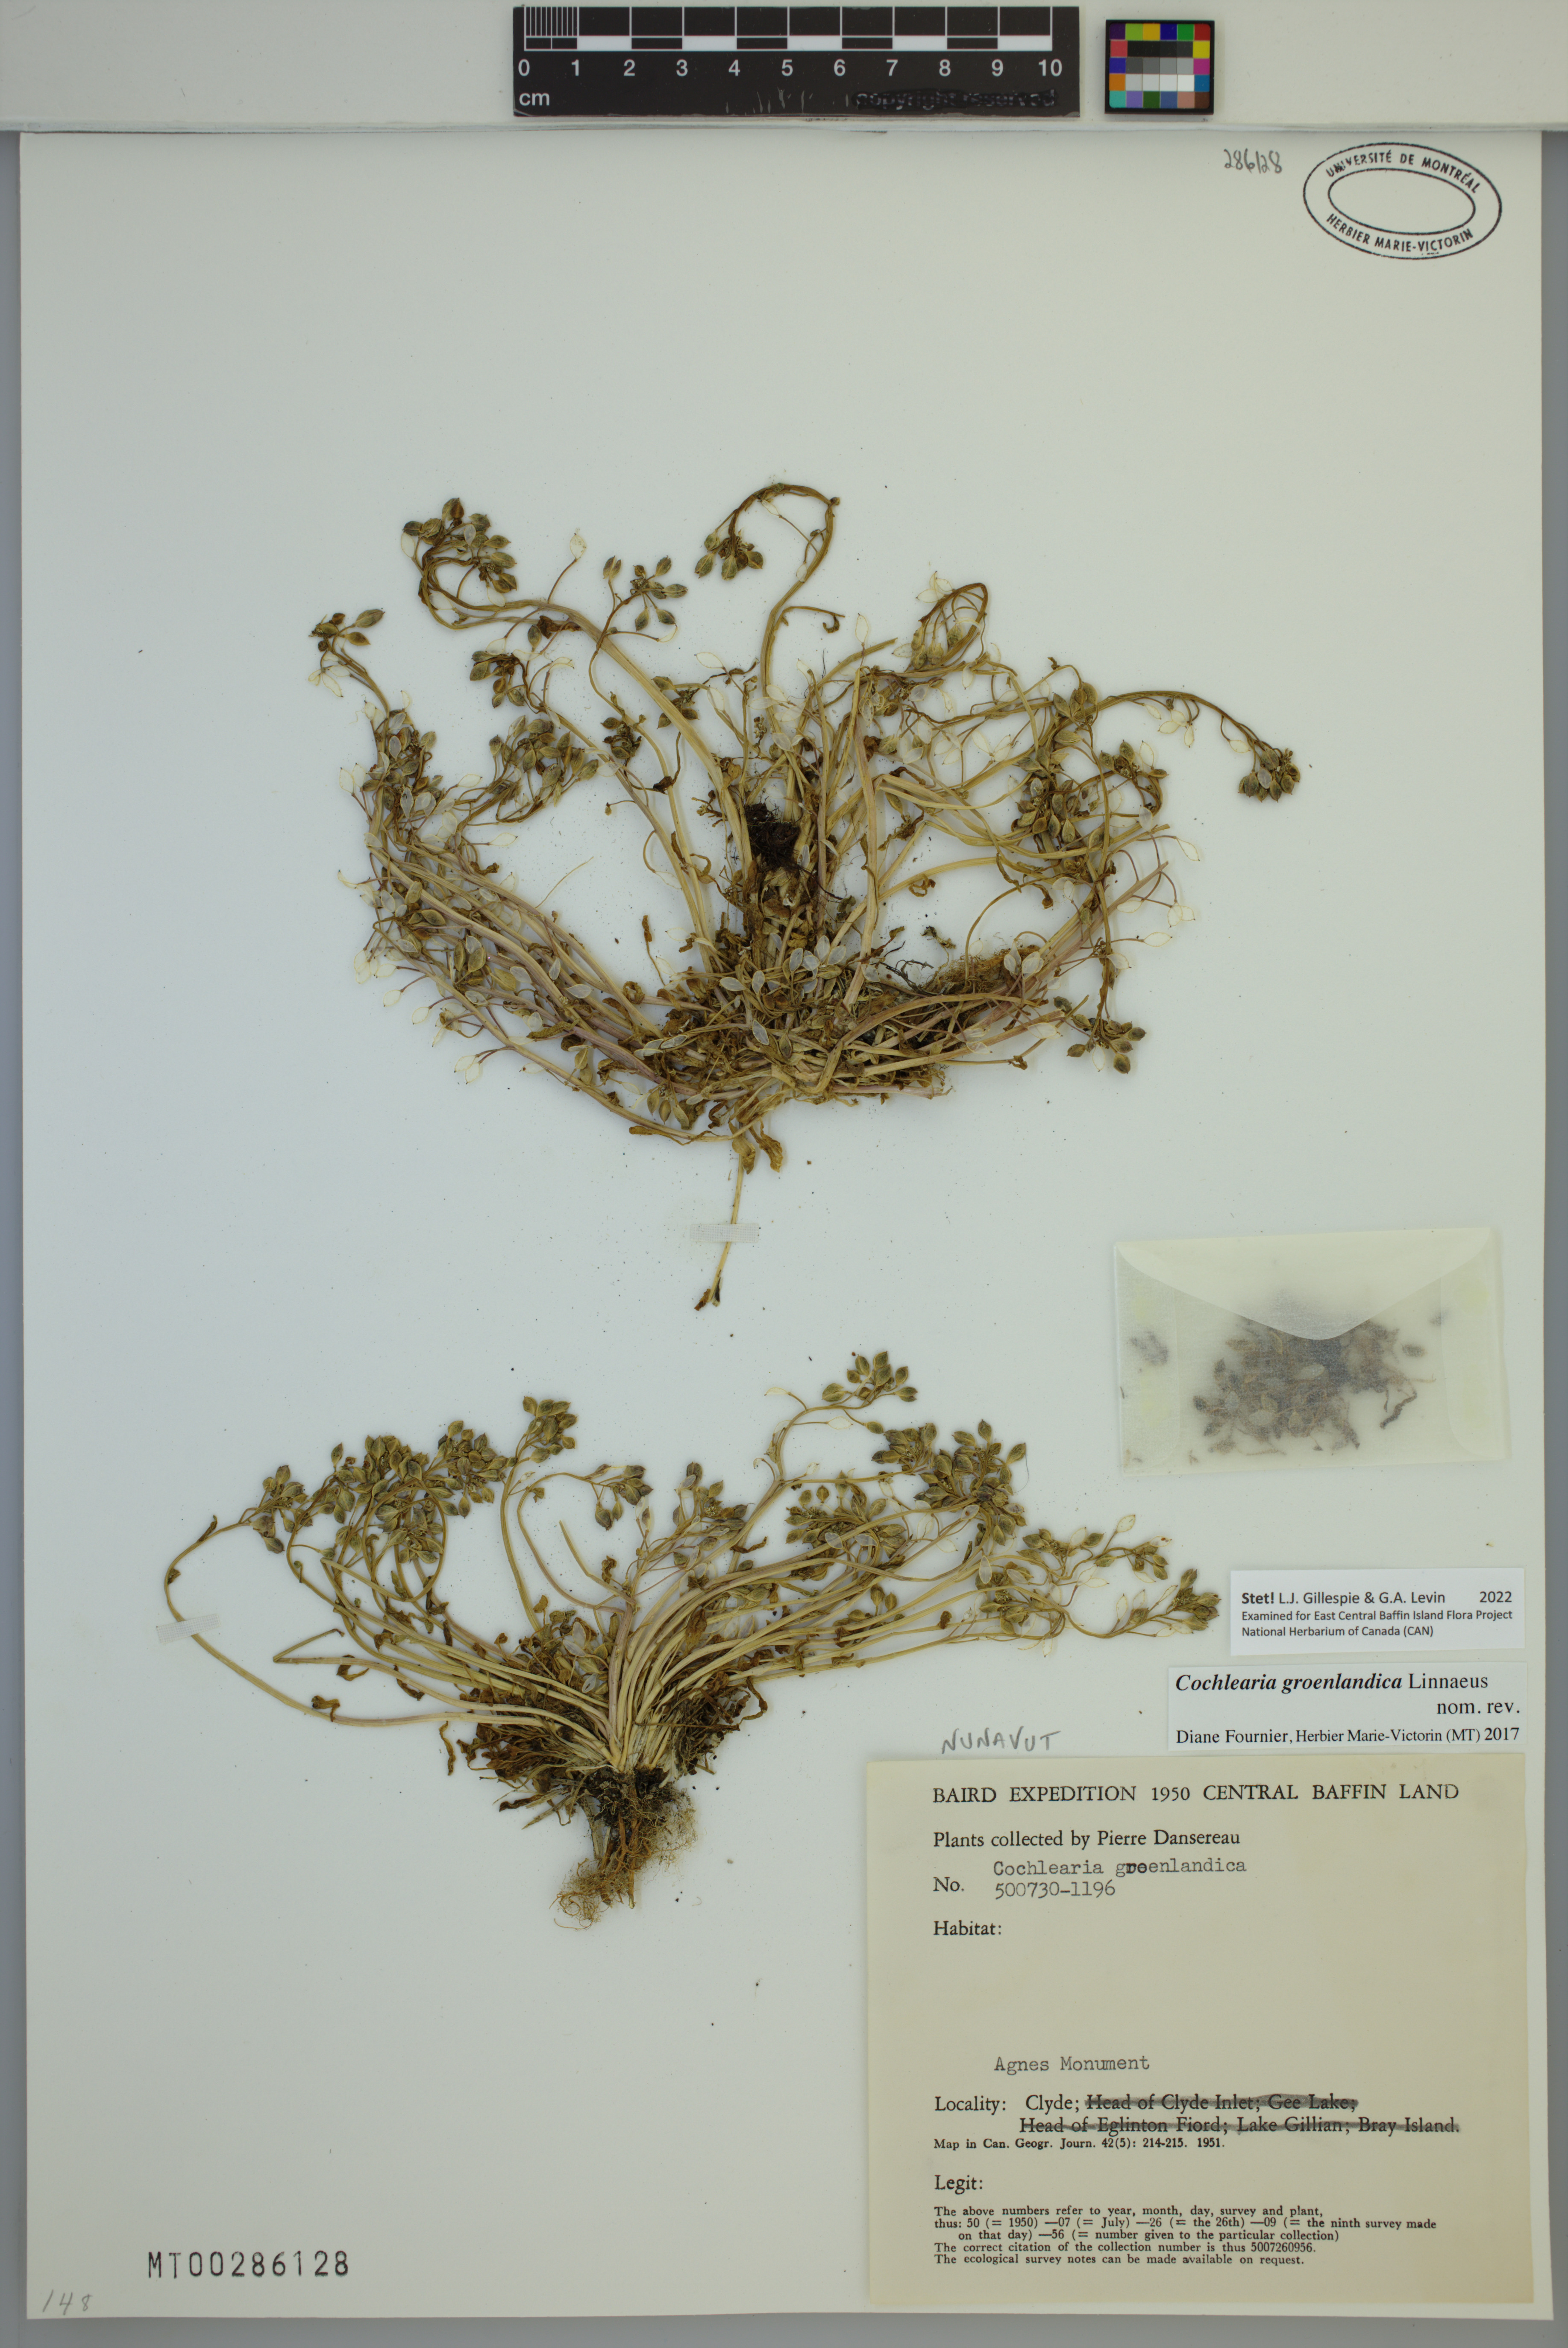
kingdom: Plantae
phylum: Tracheophyta
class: Magnoliopsida
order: Brassicales
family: Brassicaceae
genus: Cochlearia
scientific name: Cochlearia groenlandica
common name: Danish scurvygrass
